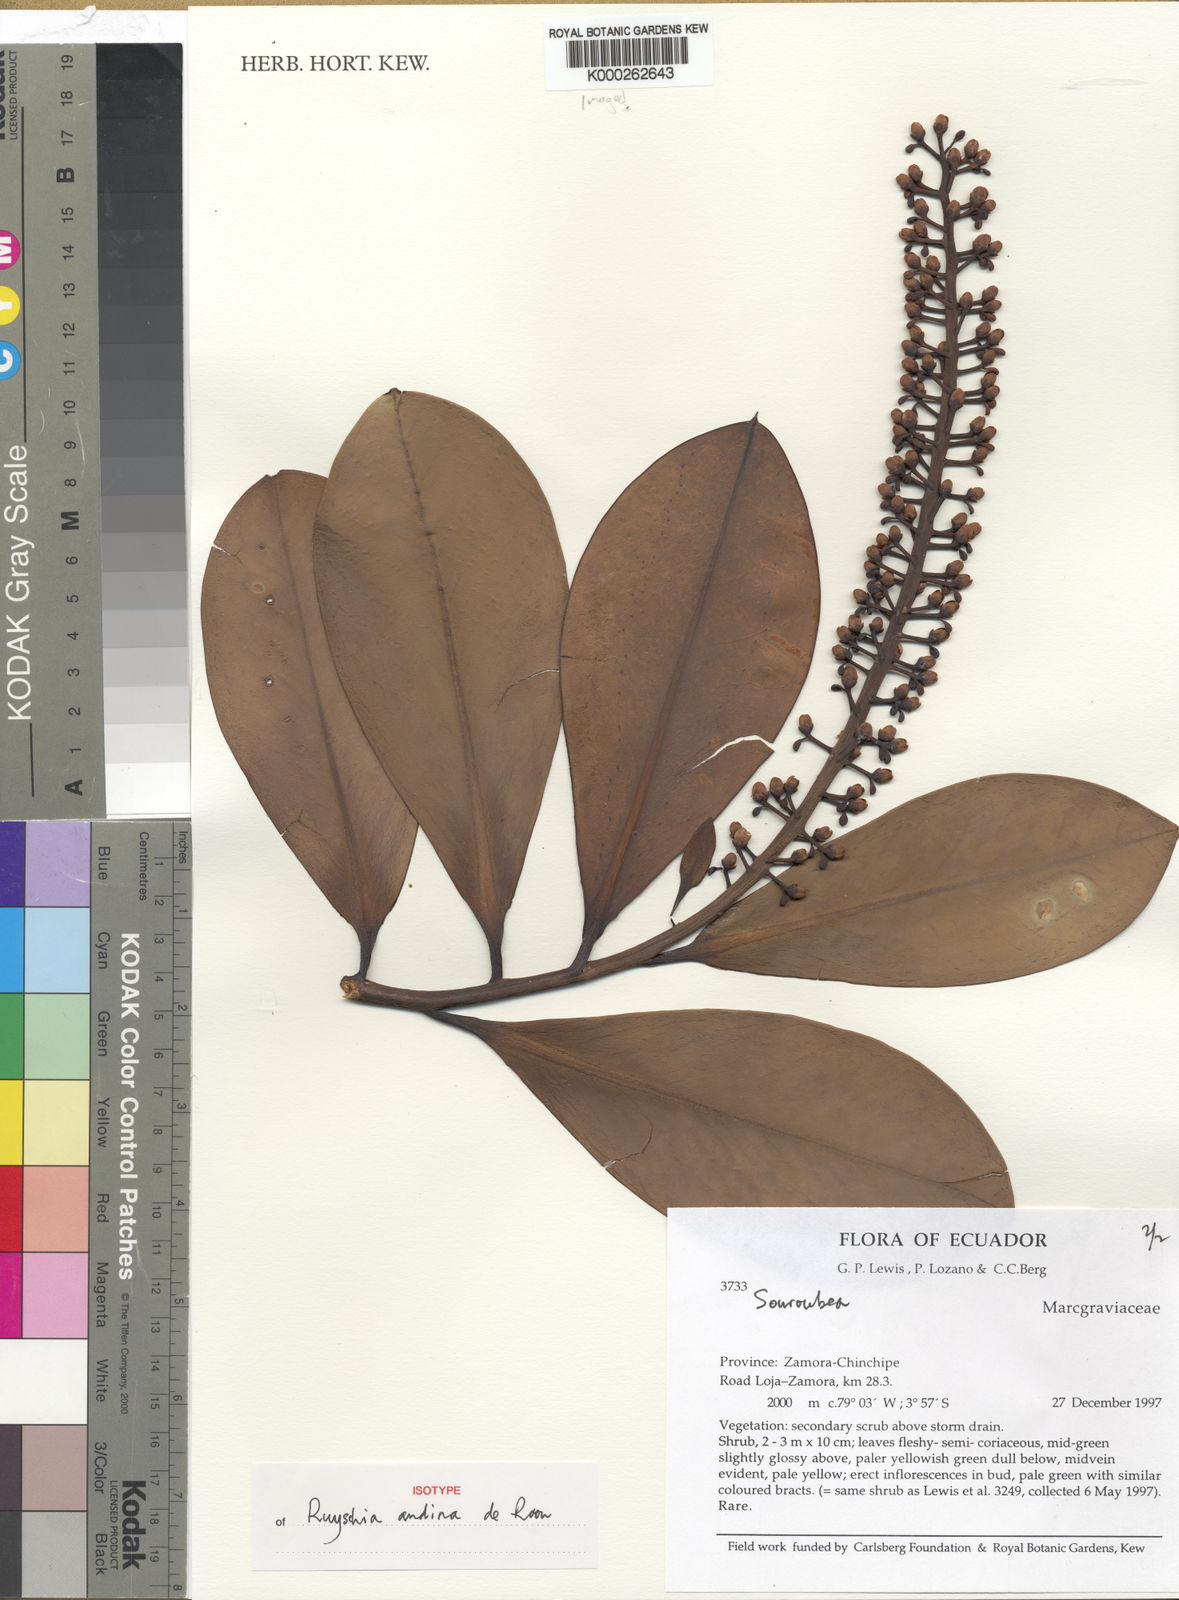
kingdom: Plantae
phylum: Tracheophyta
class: Magnoliopsida
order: Ericales
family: Marcgraviaceae
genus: Ruyschia
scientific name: Ruyschia andina
